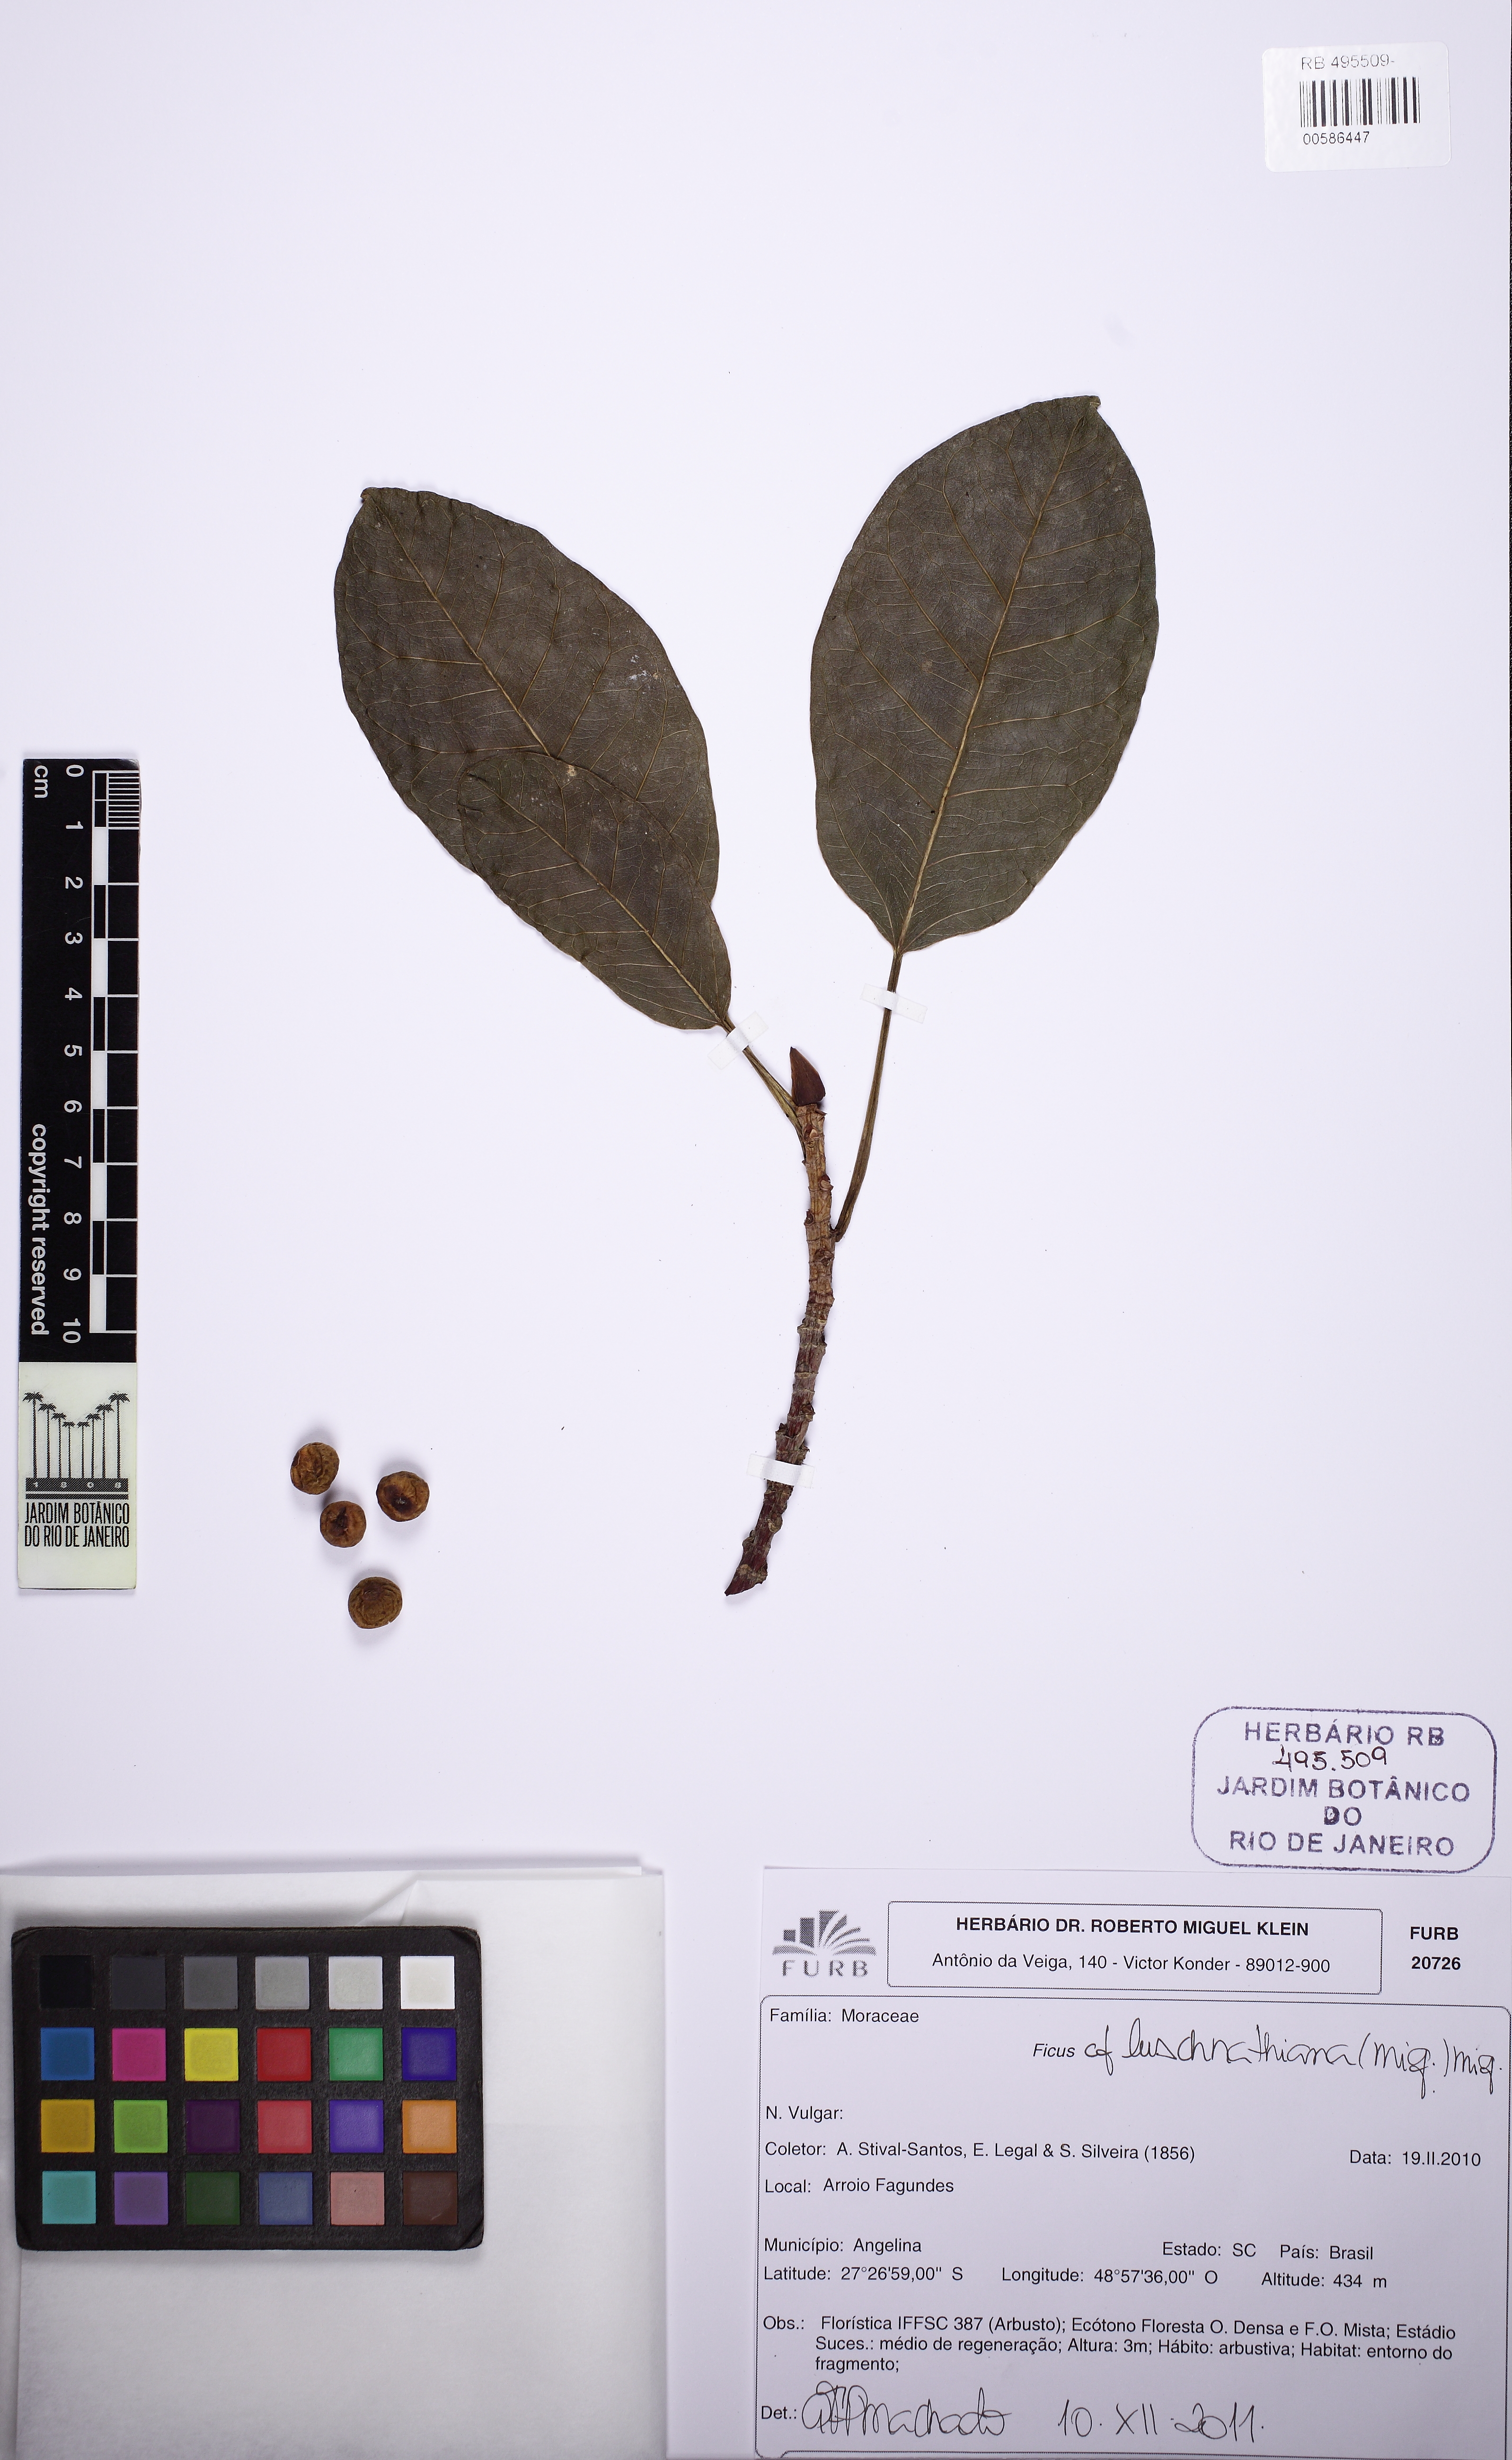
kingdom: Plantae
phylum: Tracheophyta
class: Magnoliopsida
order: Rosales
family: Moraceae
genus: Ficus
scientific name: Ficus luschnathiana
